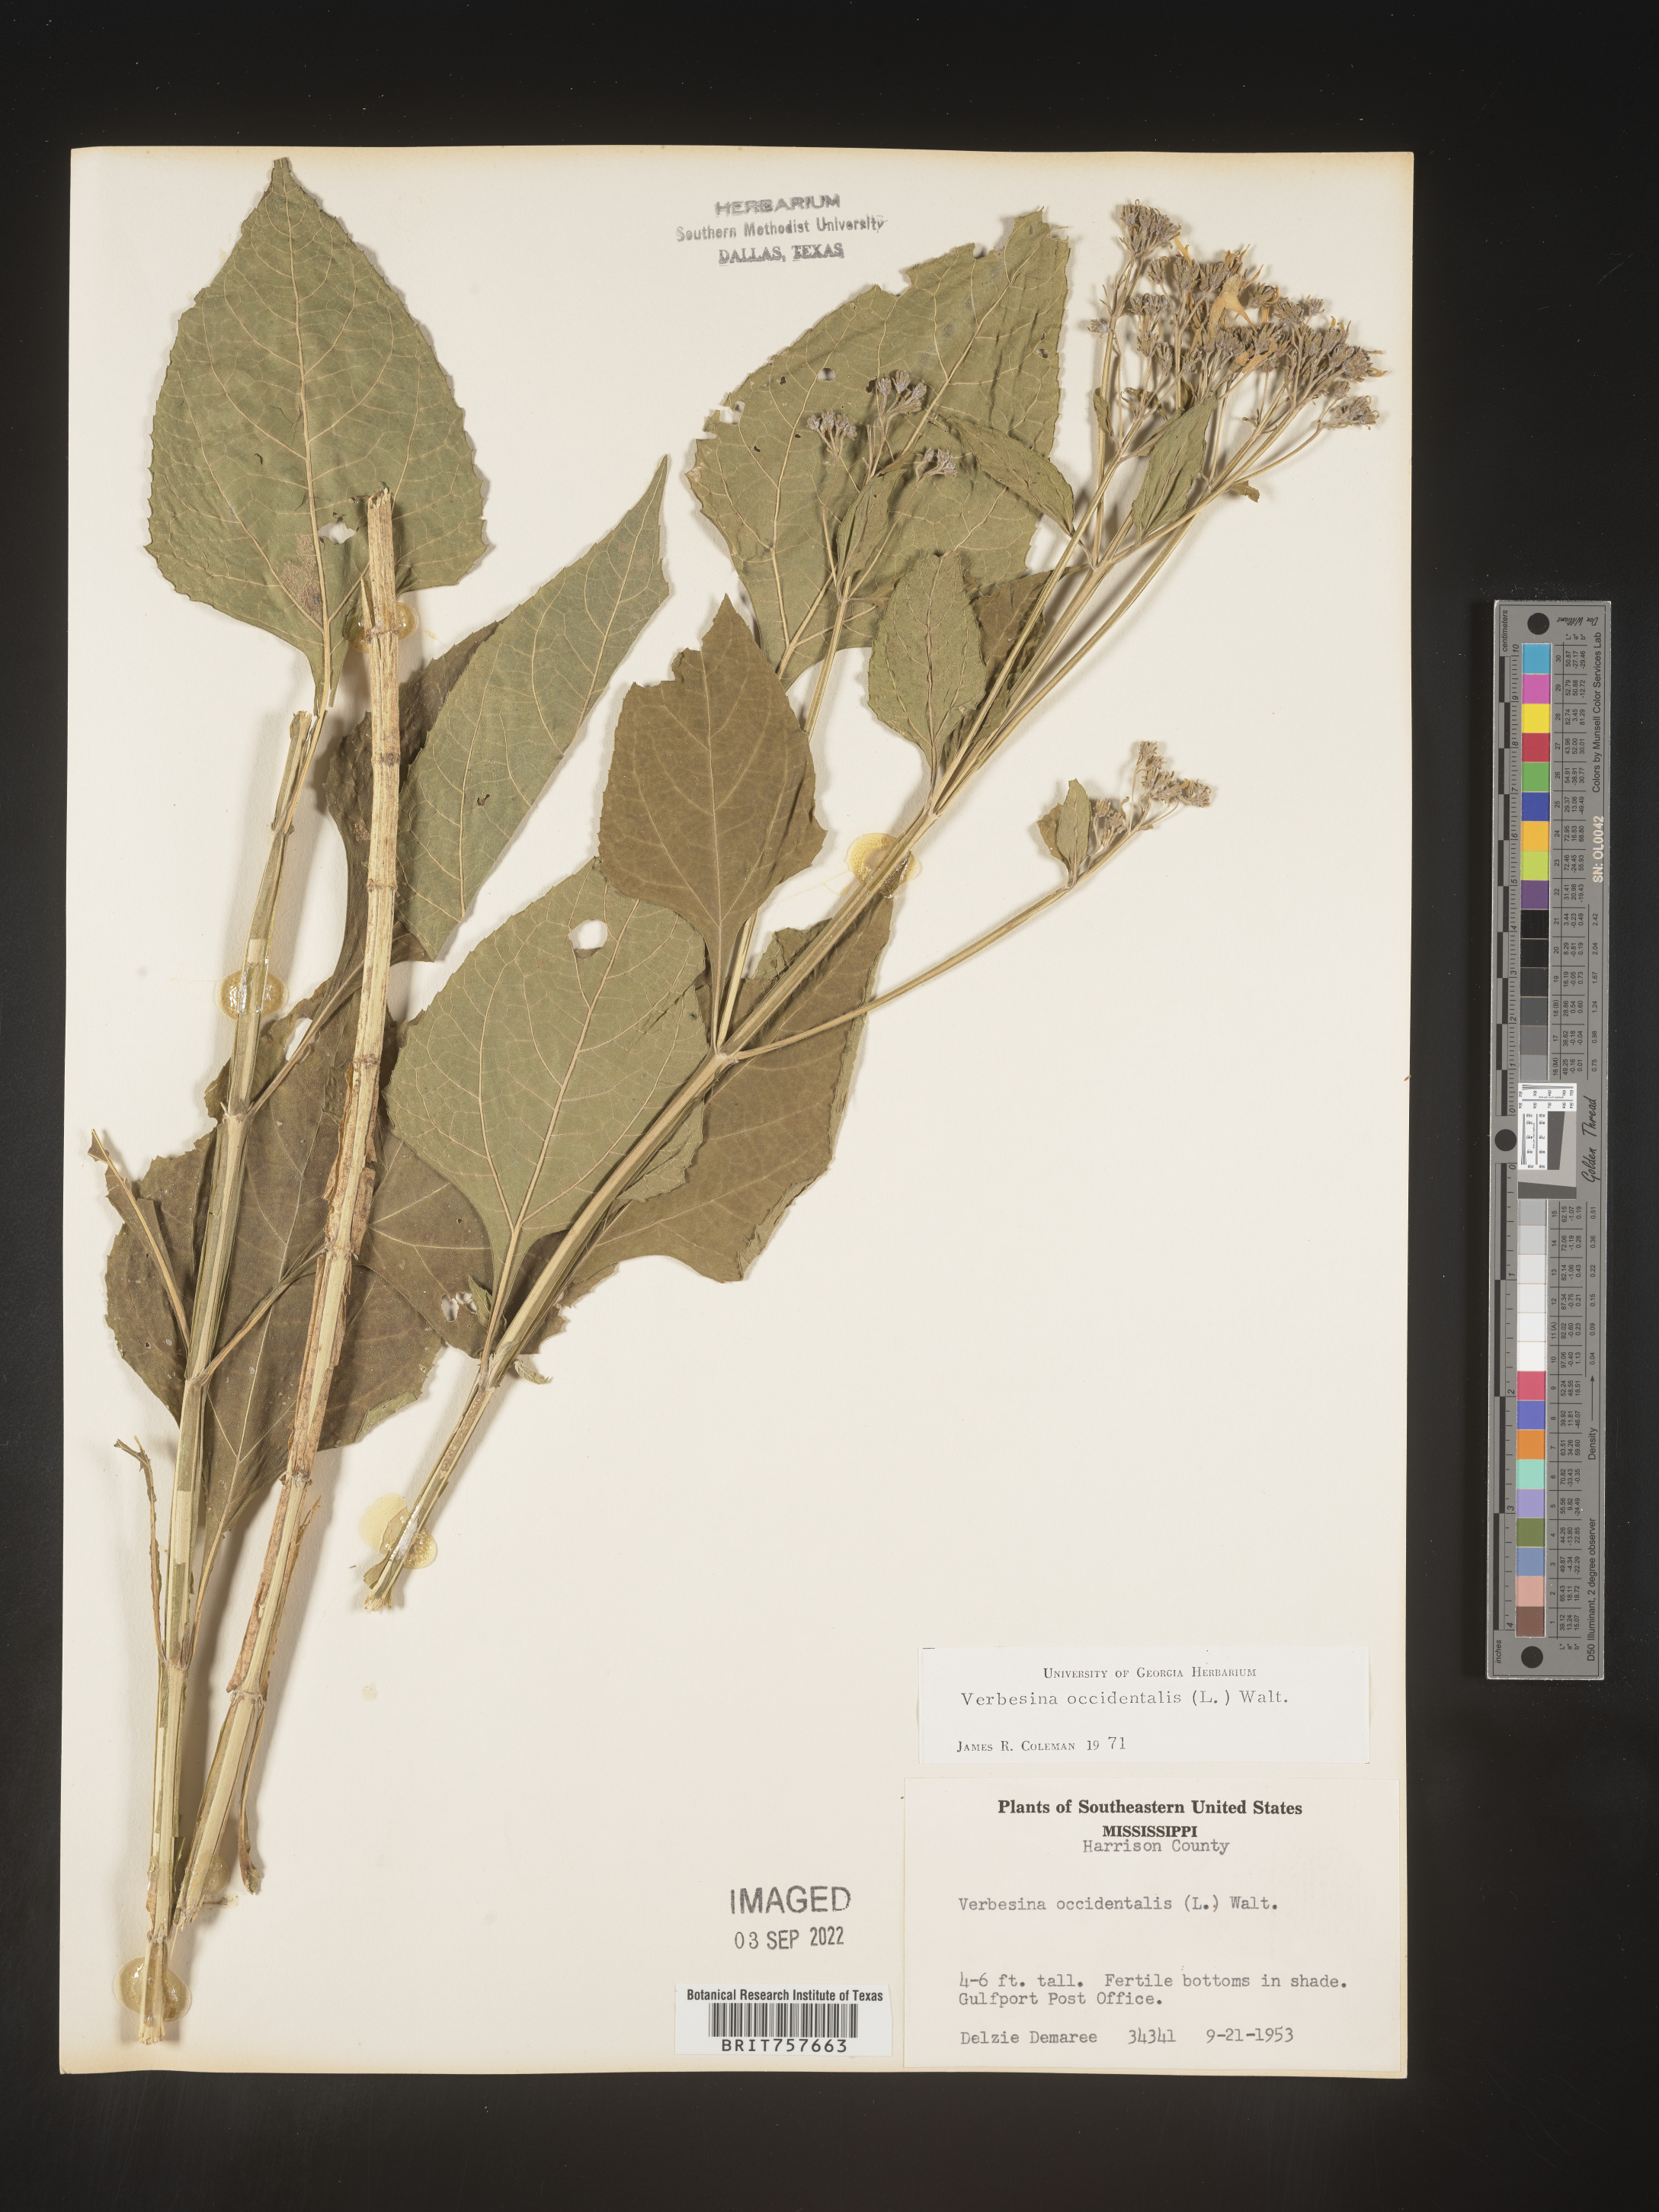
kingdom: Plantae
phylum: Tracheophyta
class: Magnoliopsida
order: Asterales
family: Asteraceae
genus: Verbesina
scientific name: Verbesina occidentalis
